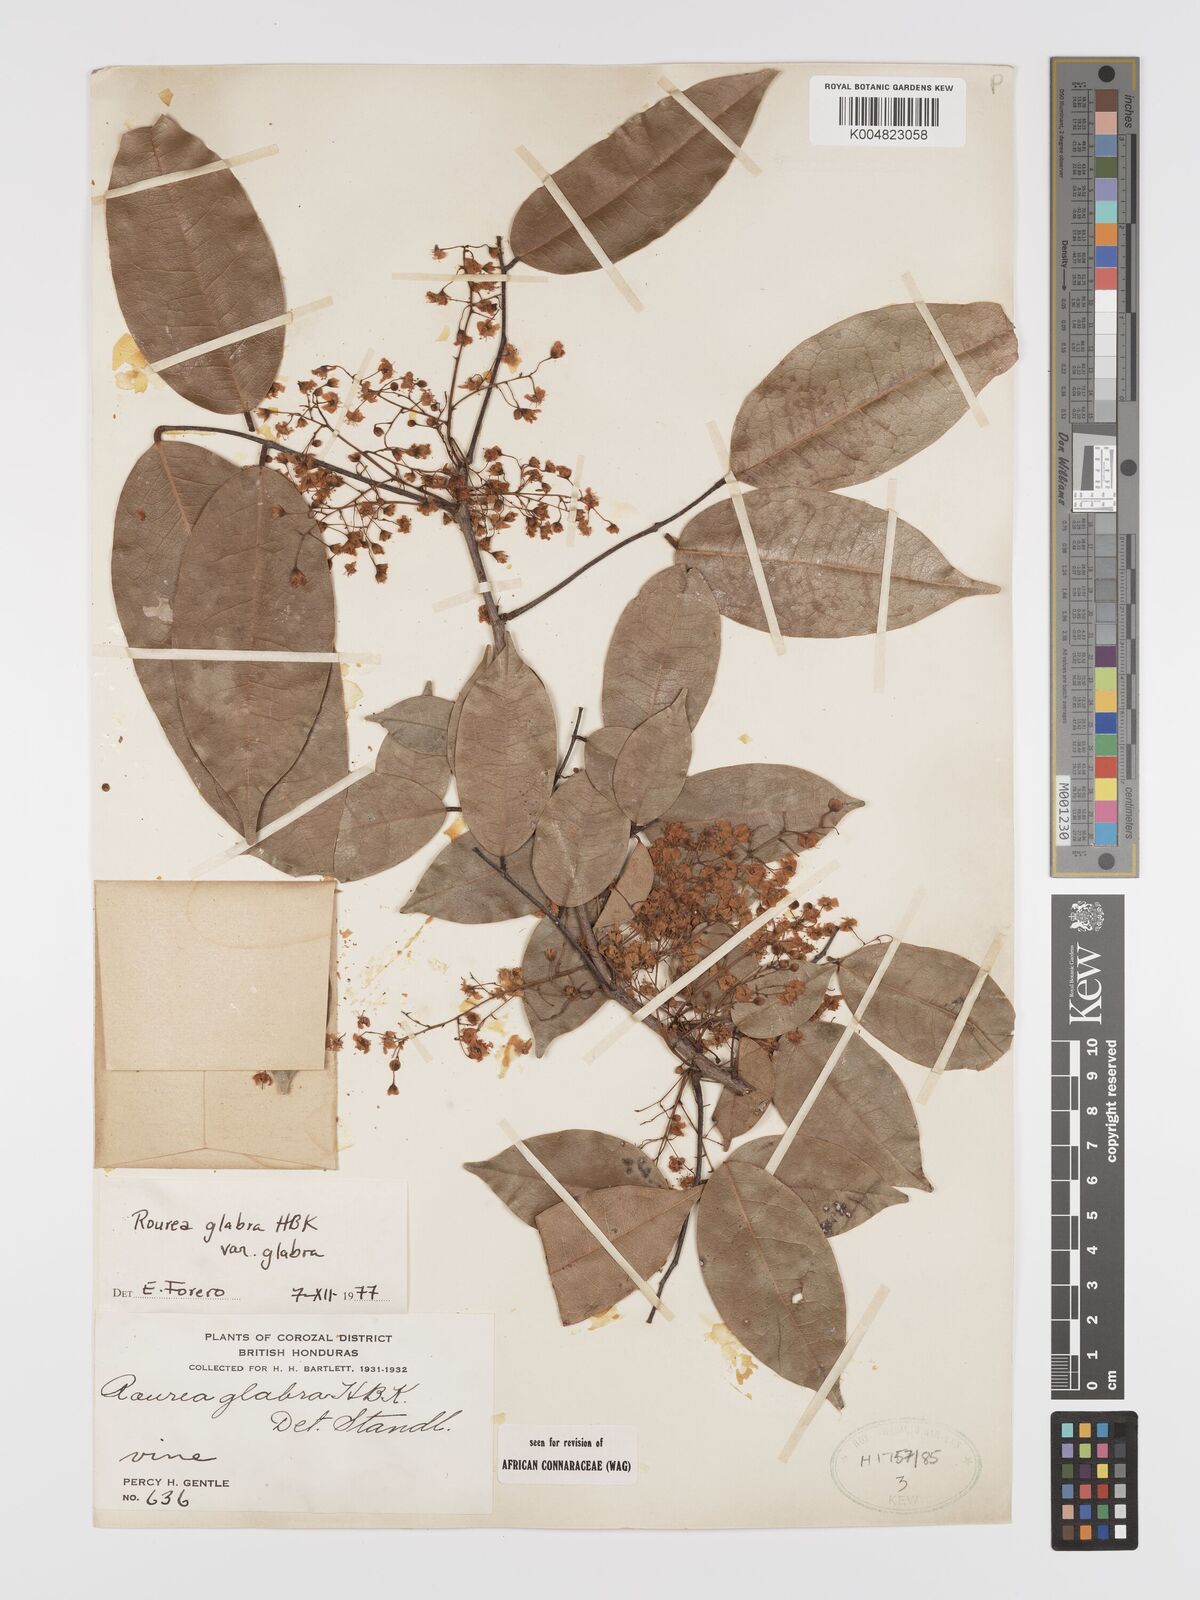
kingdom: Plantae
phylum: Tracheophyta
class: Magnoliopsida
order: Oxalidales
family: Connaraceae
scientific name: Connaraceae
